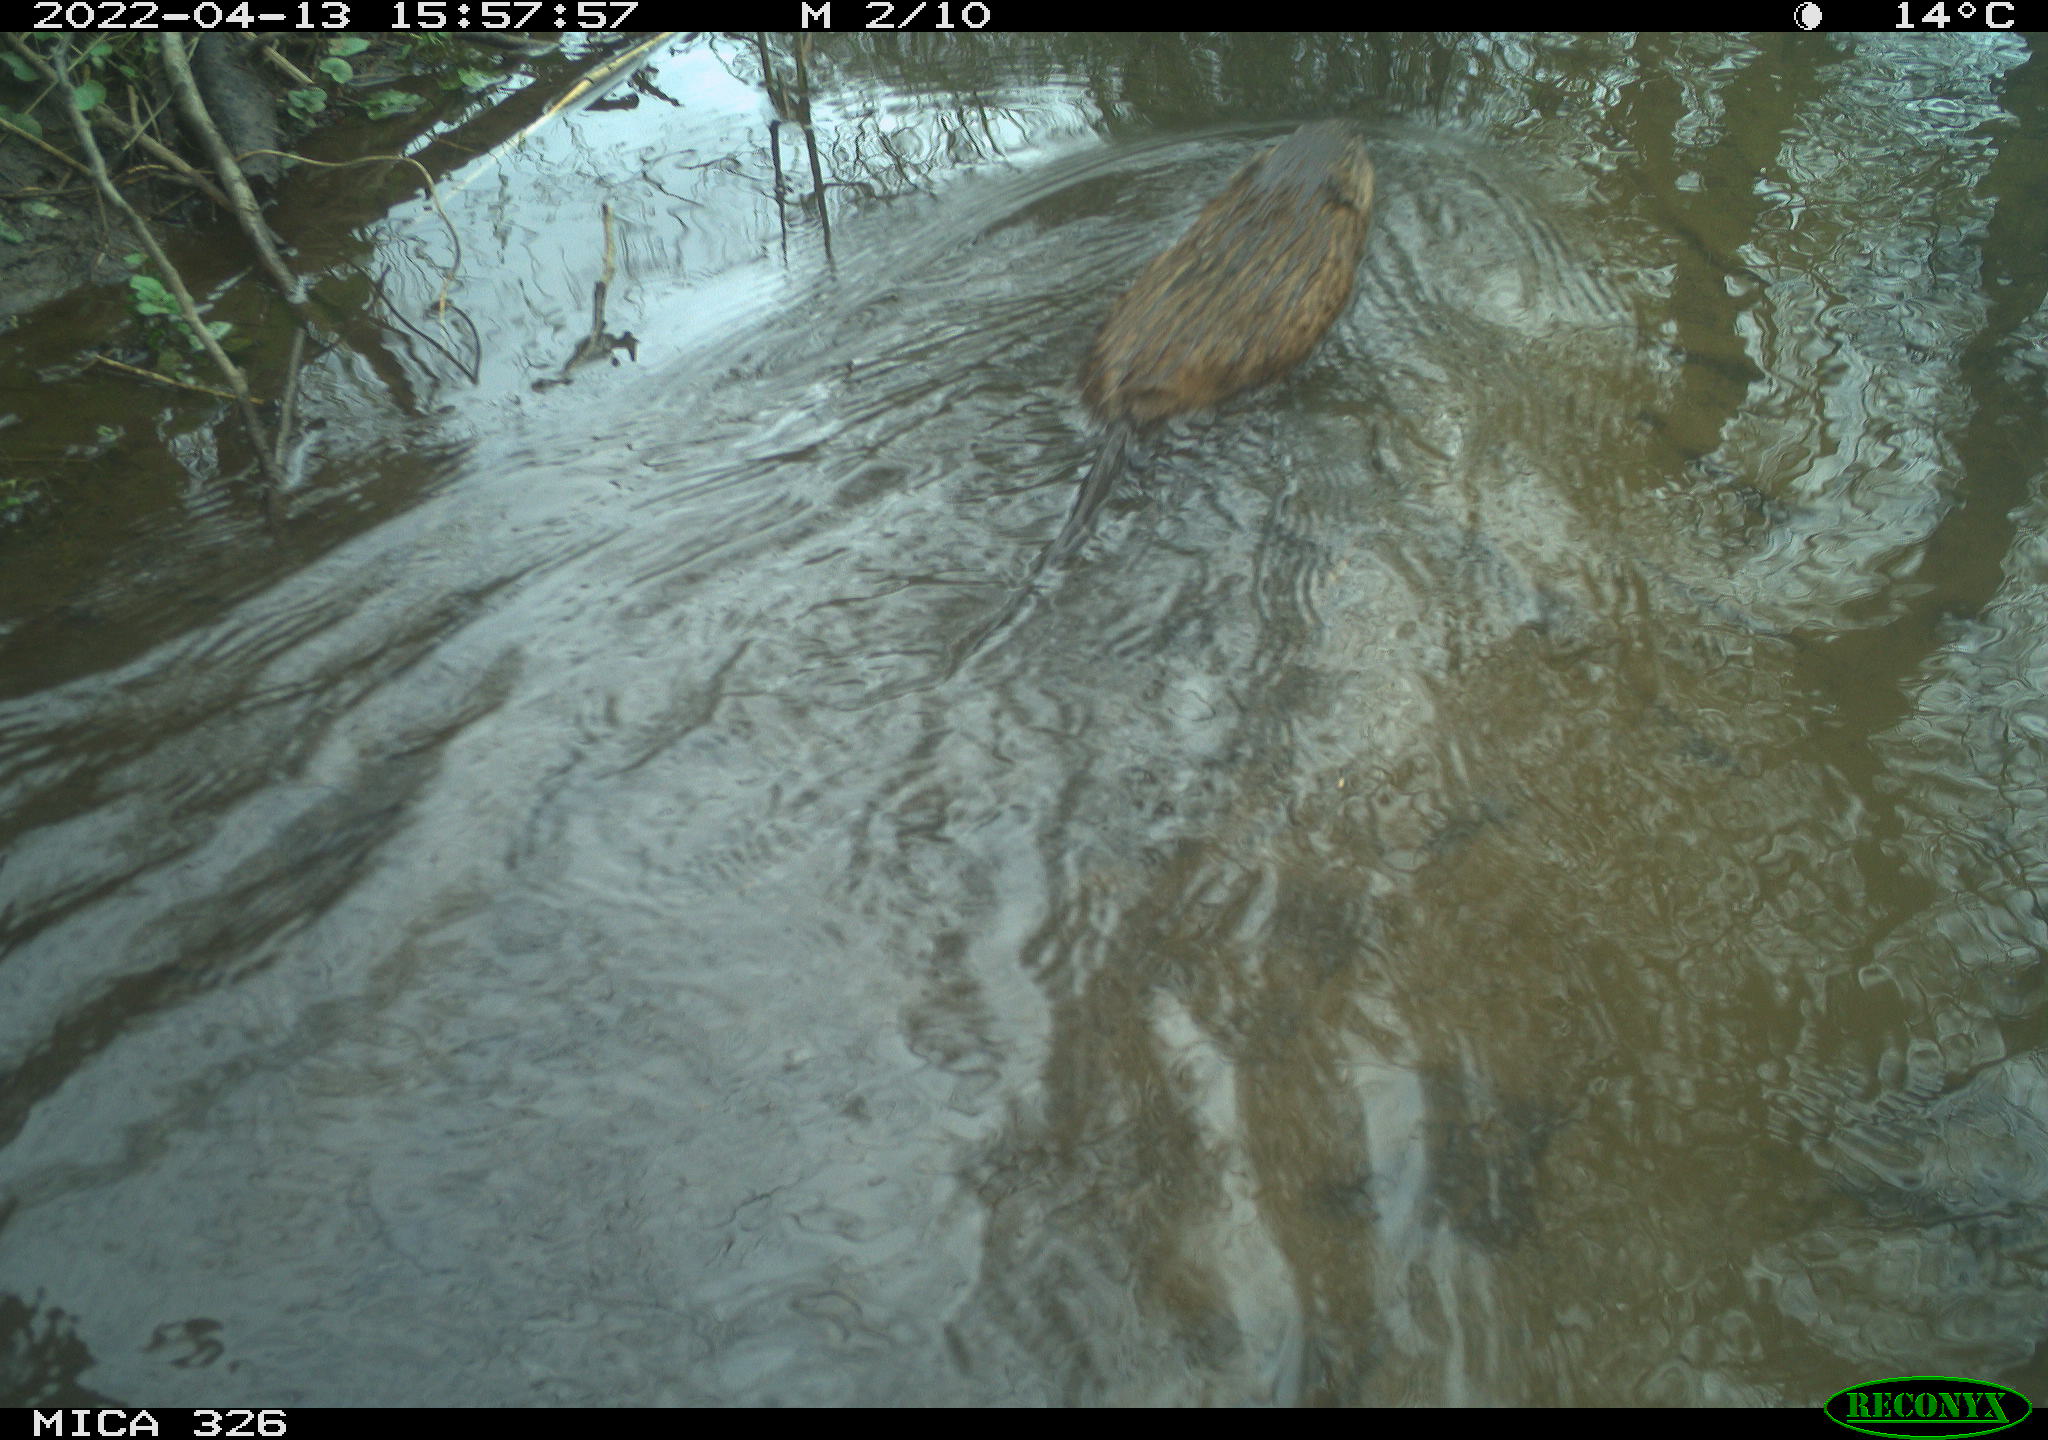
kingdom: Animalia
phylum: Chordata
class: Mammalia
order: Rodentia
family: Cricetidae
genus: Ondatra
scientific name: Ondatra zibethicus
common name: Muskrat
